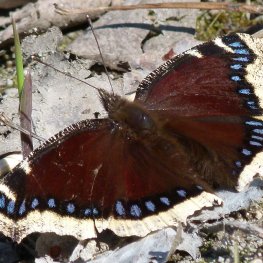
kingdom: Animalia
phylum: Arthropoda
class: Insecta
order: Lepidoptera
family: Nymphalidae
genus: Nymphalis
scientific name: Nymphalis antiopa
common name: Mourning Cloak
